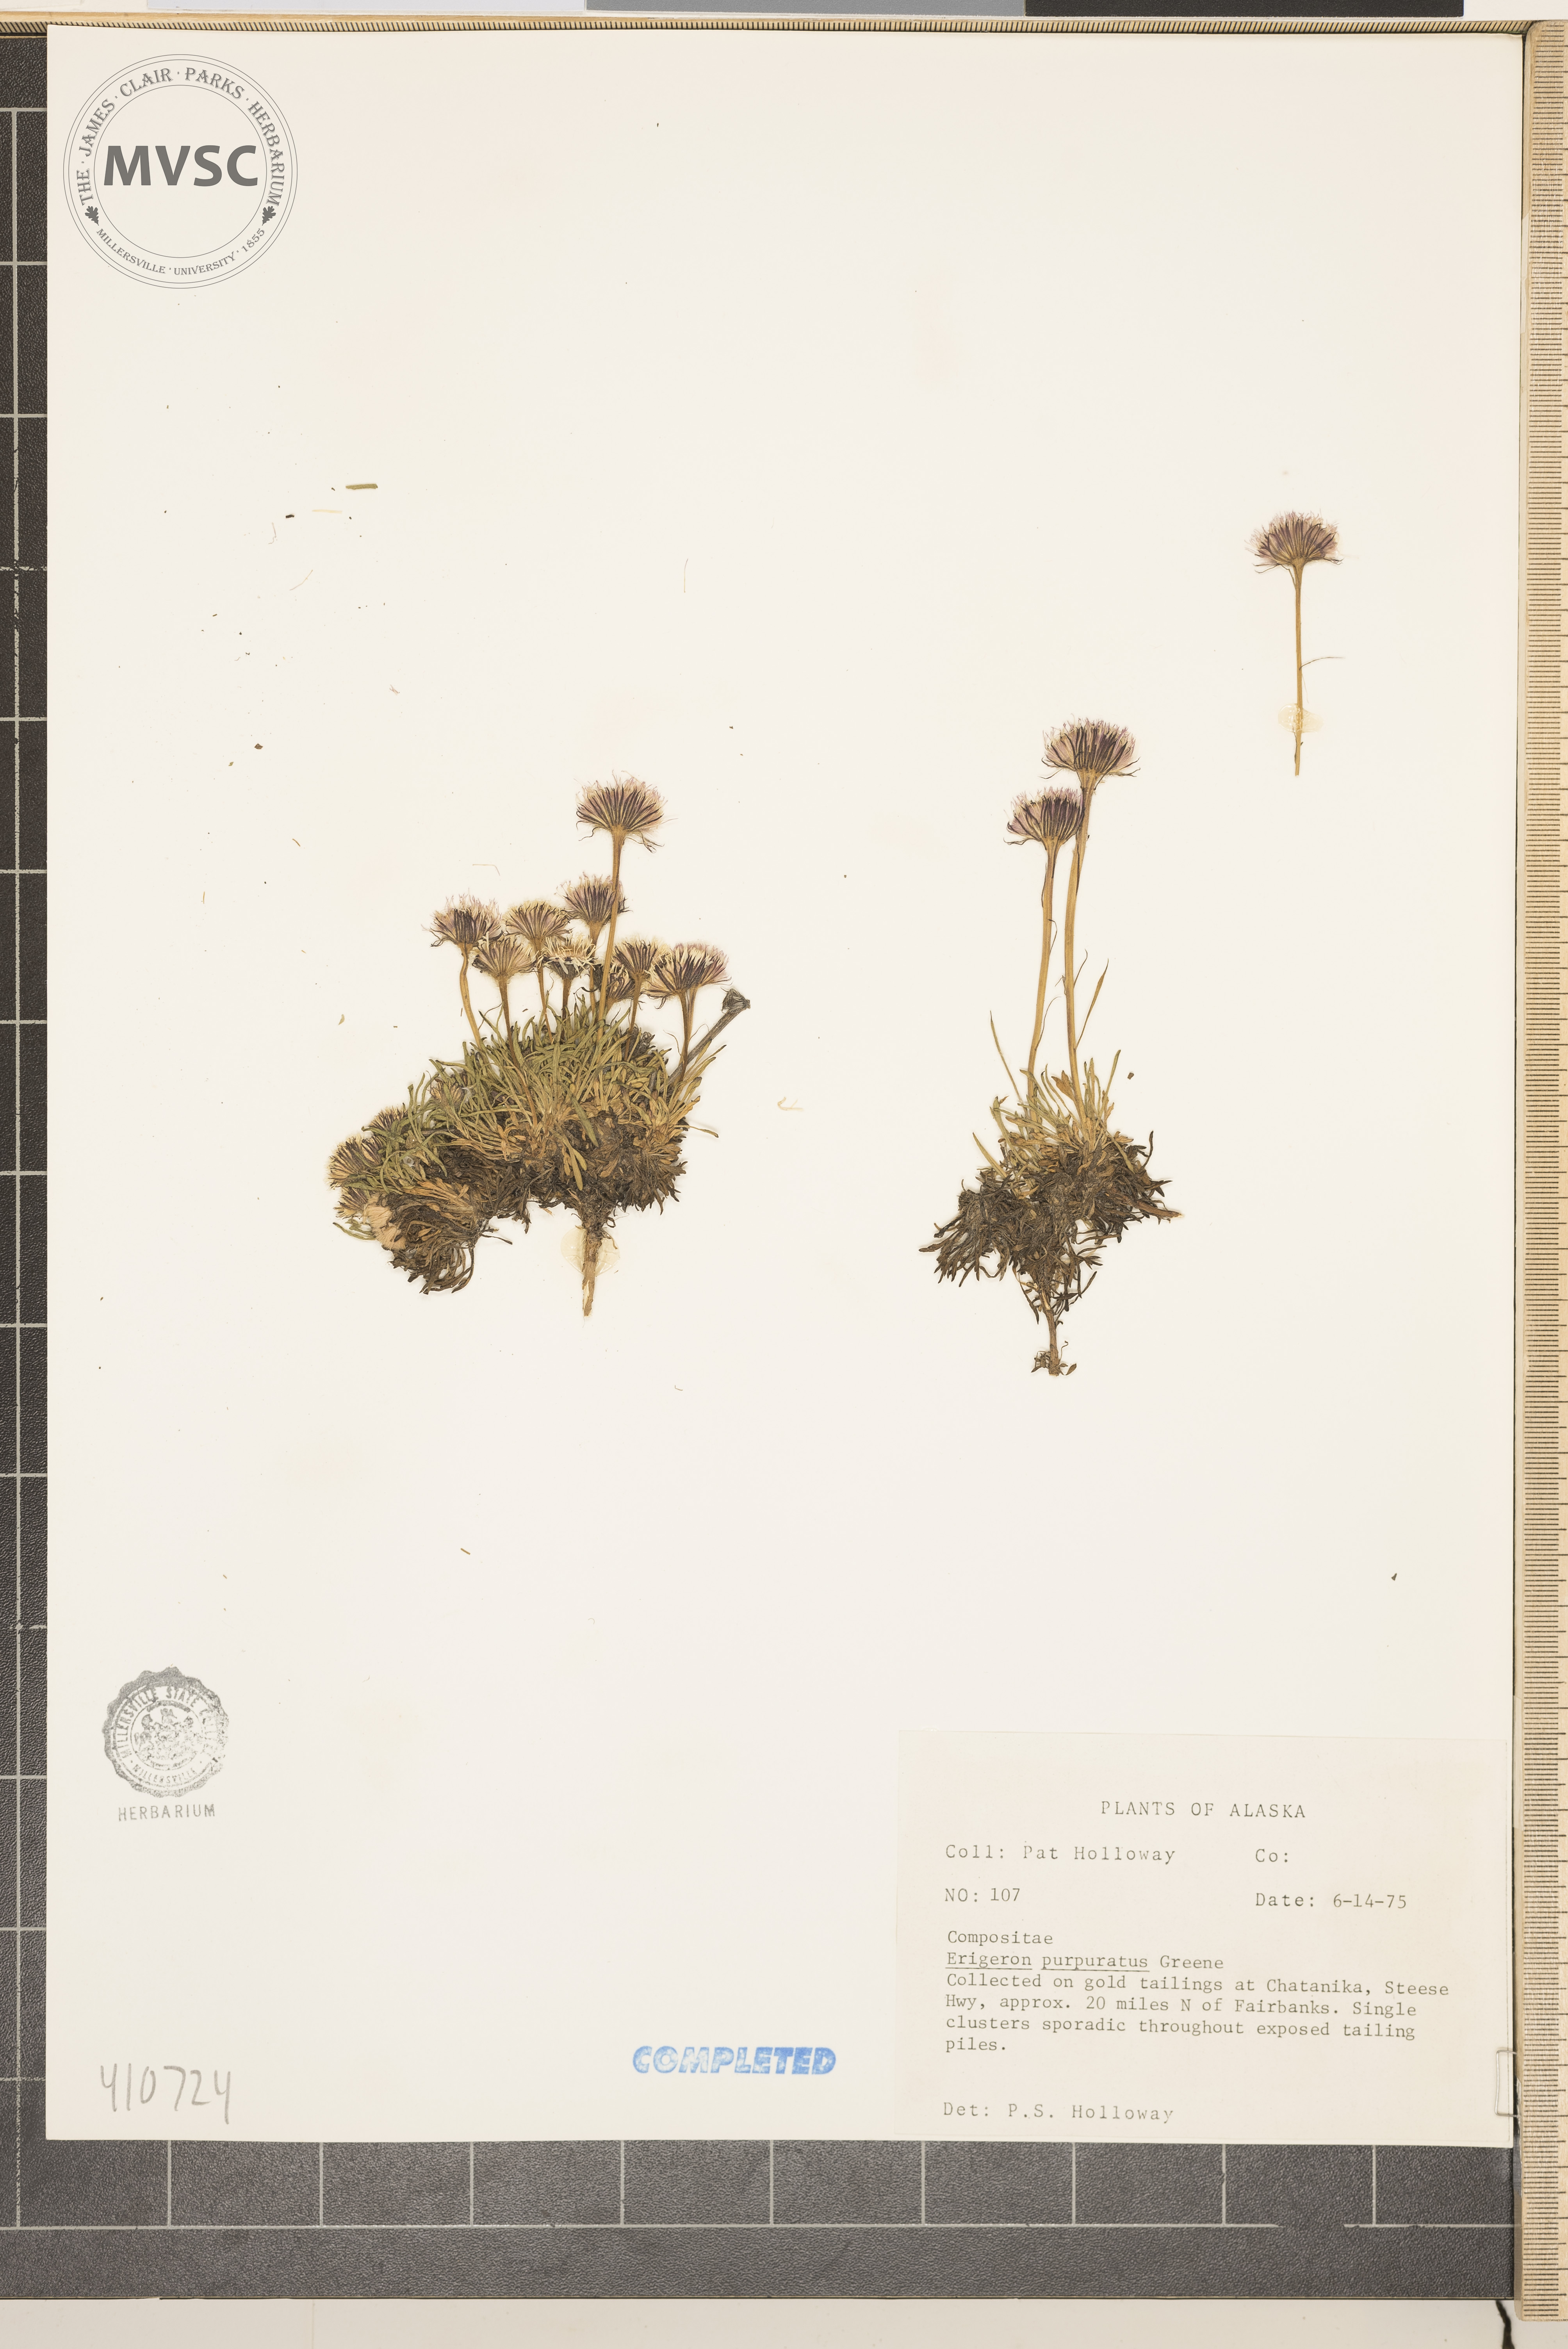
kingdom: Plantae
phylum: Tracheophyta
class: Magnoliopsida
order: Asterales
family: Asteraceae
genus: Erigeron
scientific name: Erigeron purpuratus
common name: Purple fleabane
